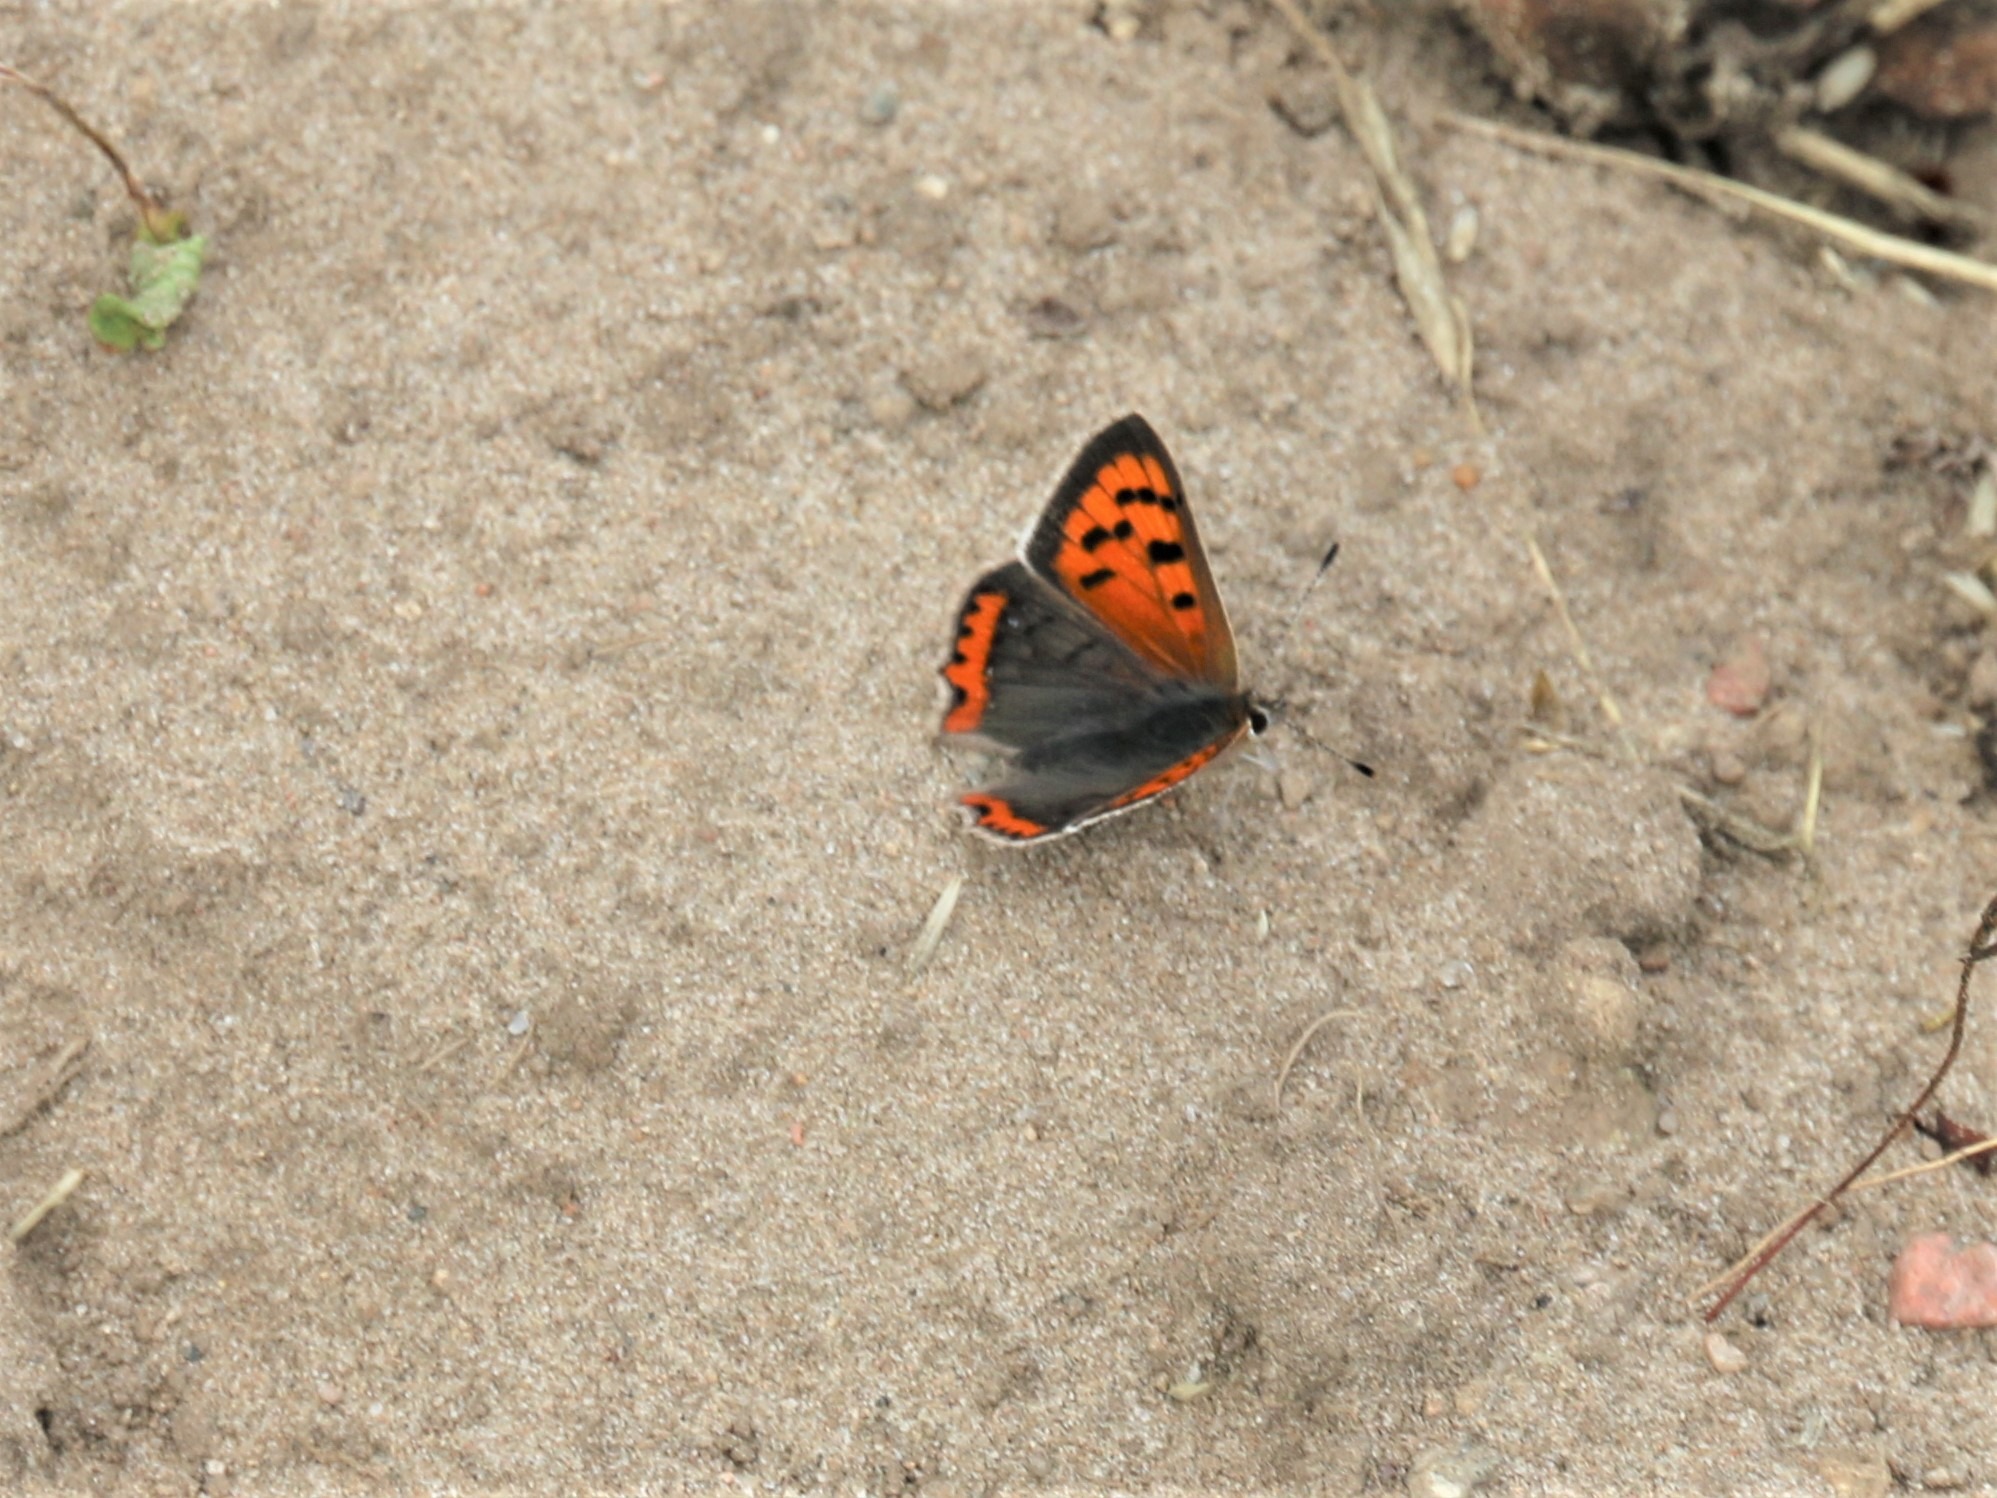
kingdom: Animalia
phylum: Arthropoda
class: Insecta
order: Lepidoptera
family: Lycaenidae
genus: Lycaena
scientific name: Lycaena phlaeas
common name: Lille ildfugl
